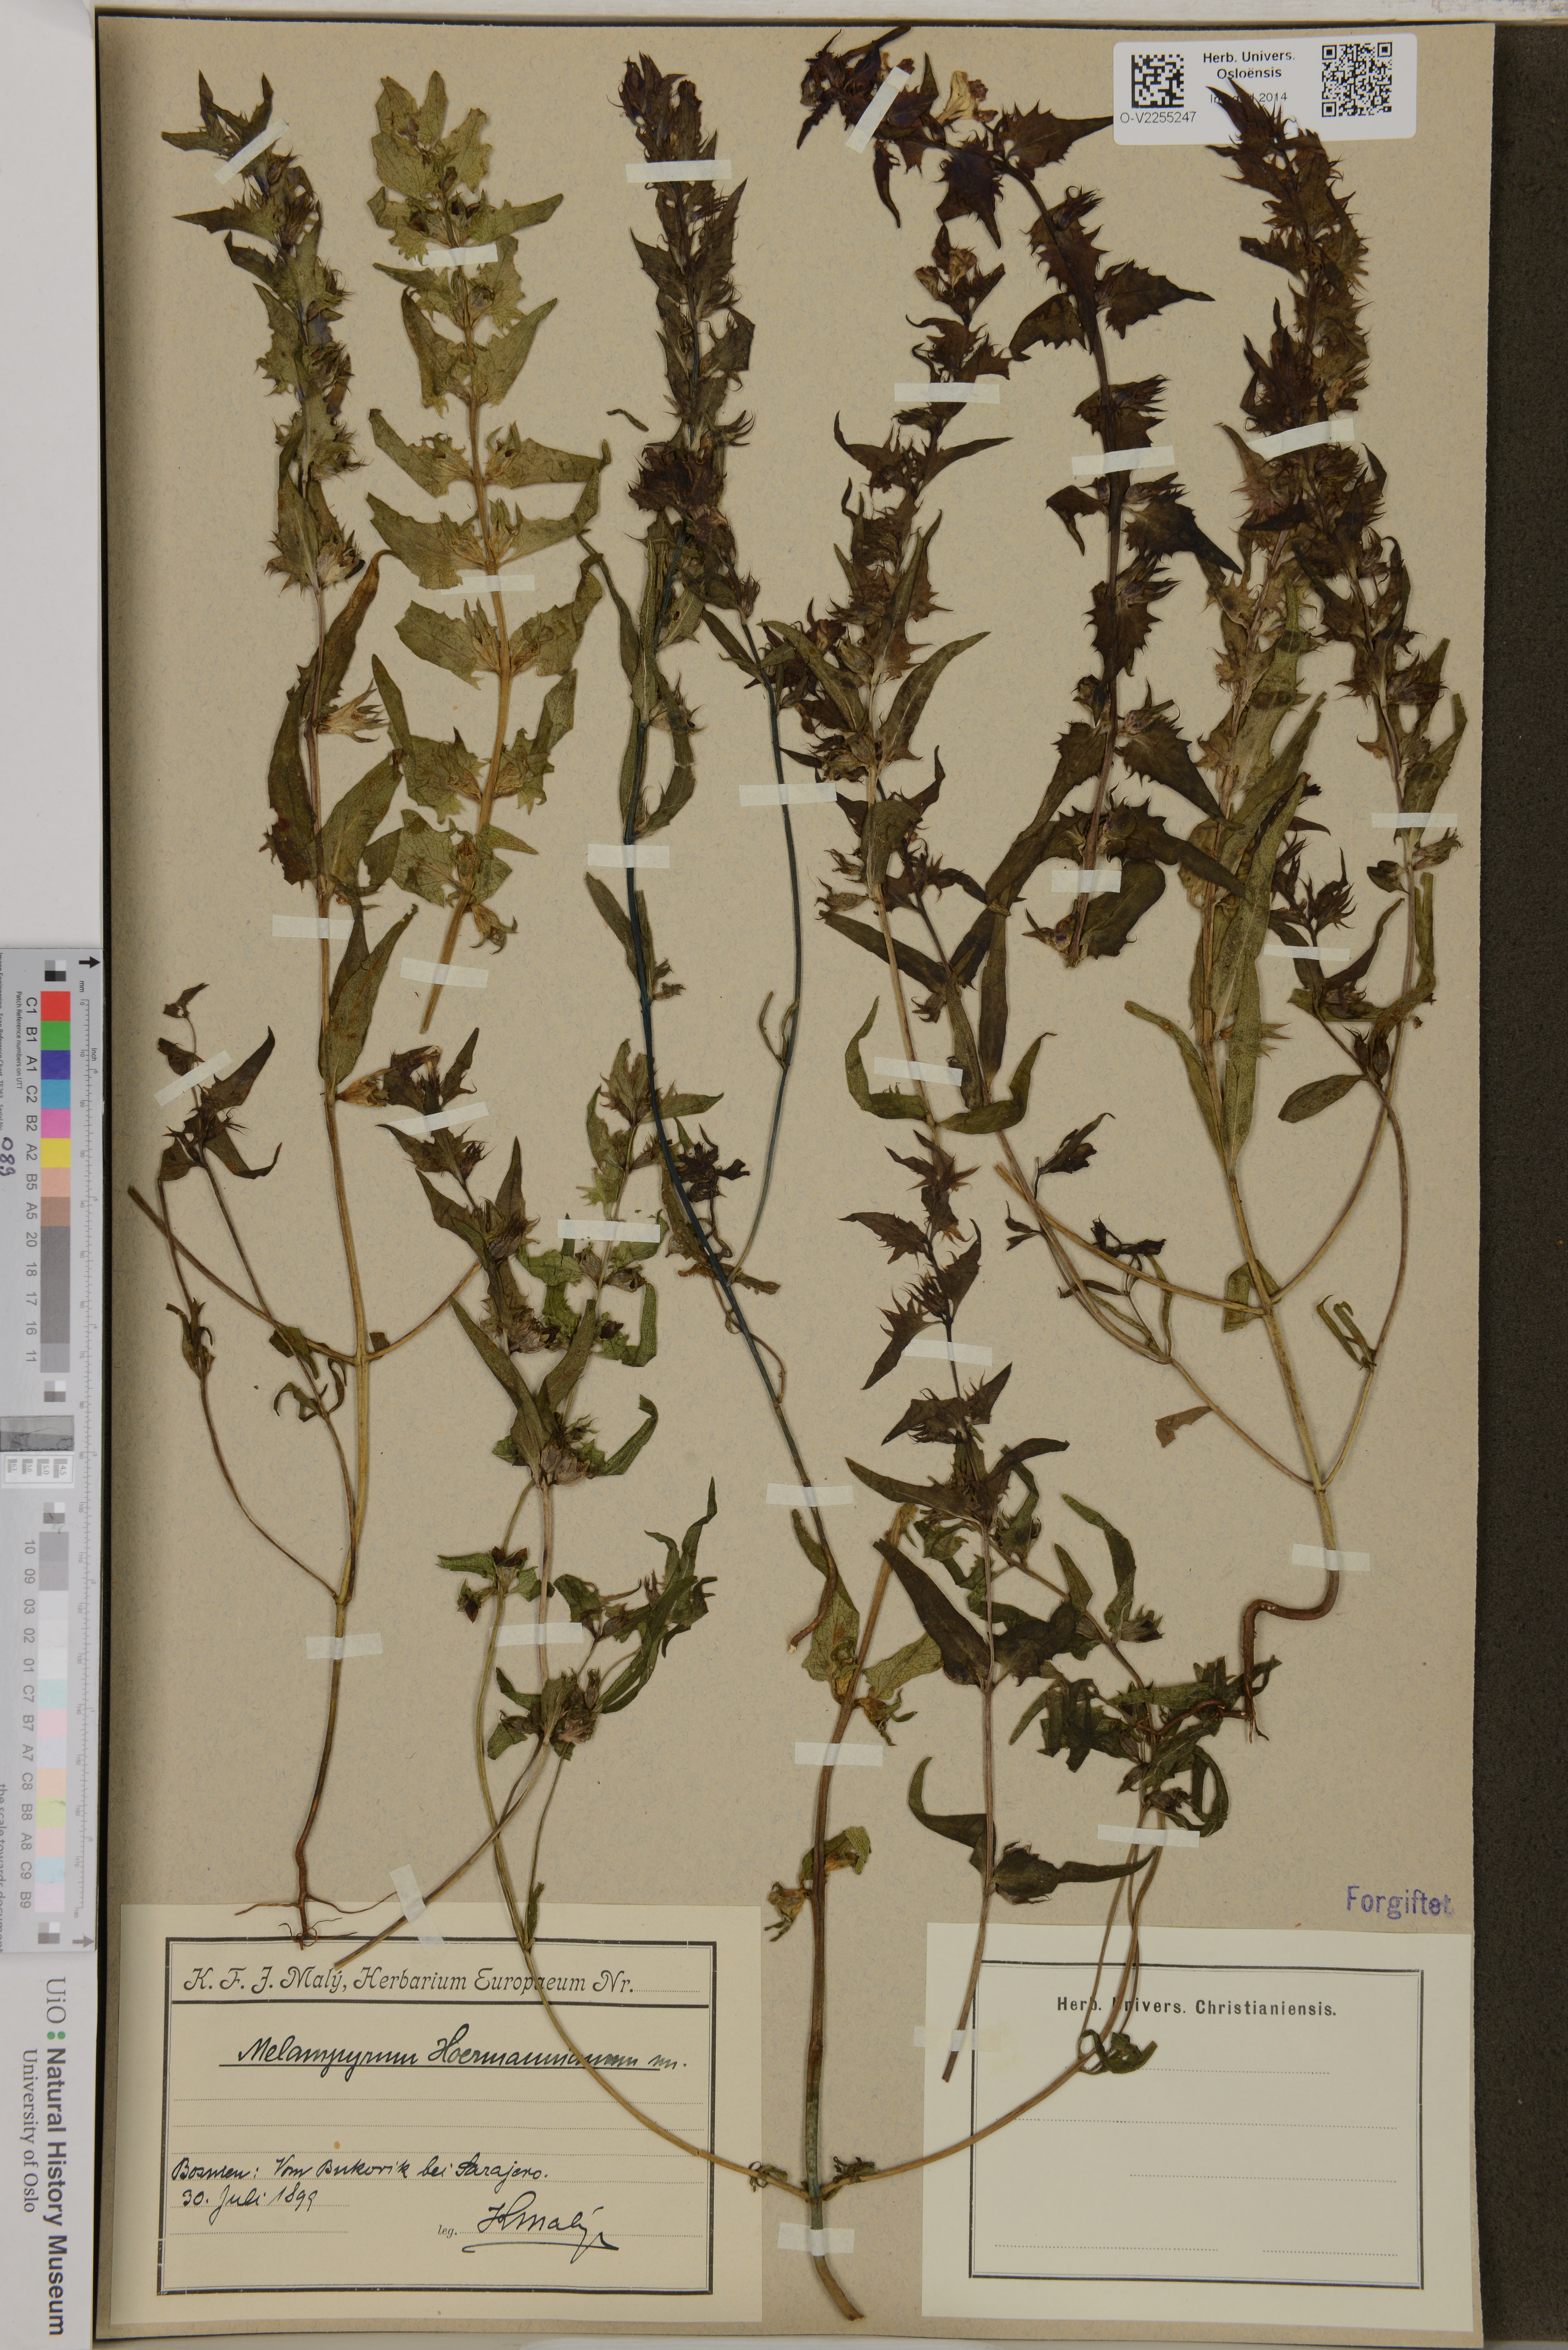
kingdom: Plantae
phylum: Tracheophyta
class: Magnoliopsida
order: Lamiales
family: Orobanchaceae
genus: Melampyrum
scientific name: Melampyrum hoermannianum
